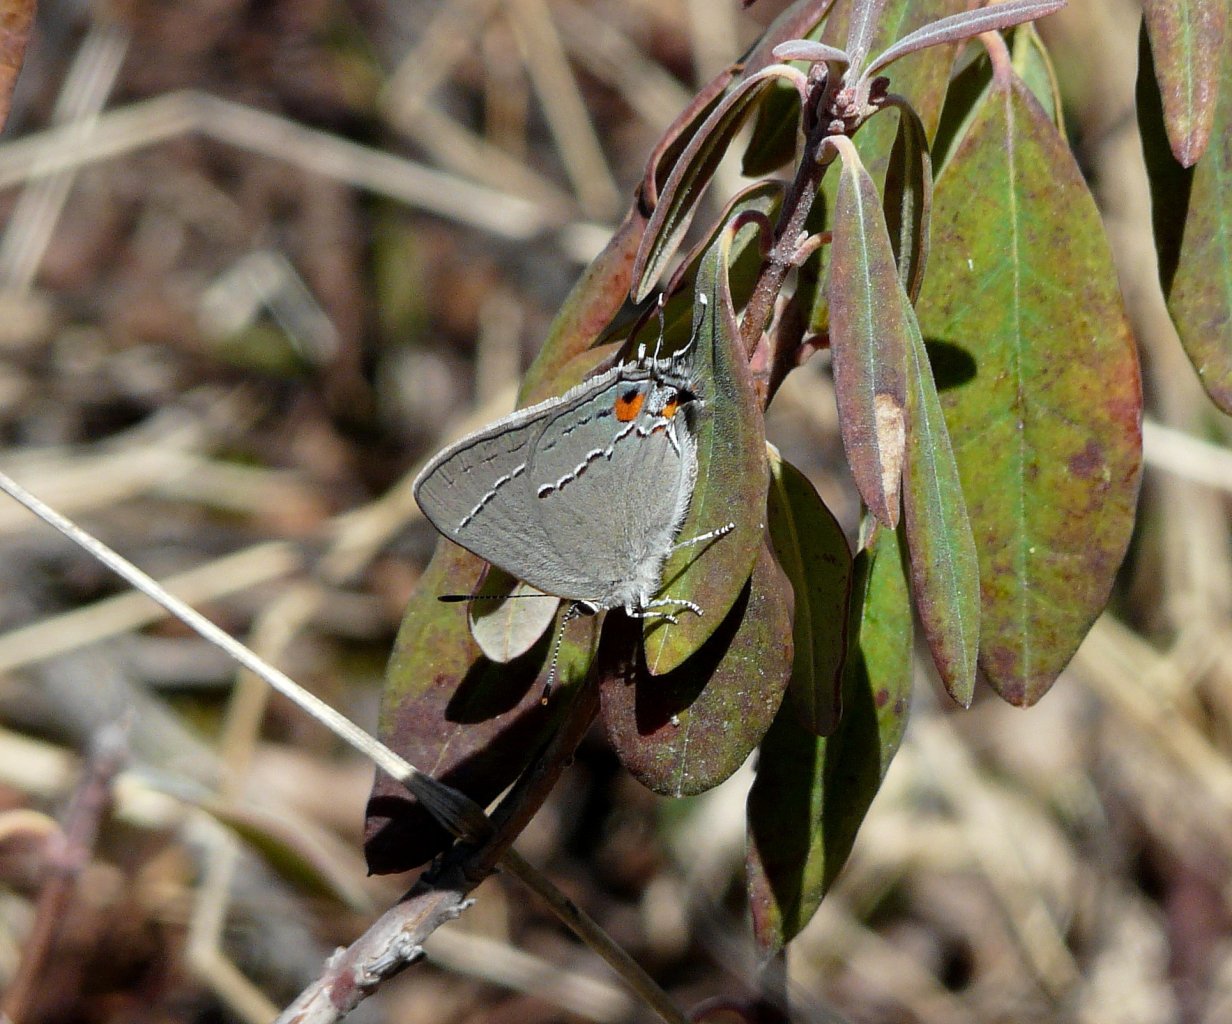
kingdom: Animalia
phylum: Arthropoda
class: Insecta
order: Lepidoptera
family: Lycaenidae
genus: Strymon
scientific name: Strymon melinus
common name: Gray Hairstreak
